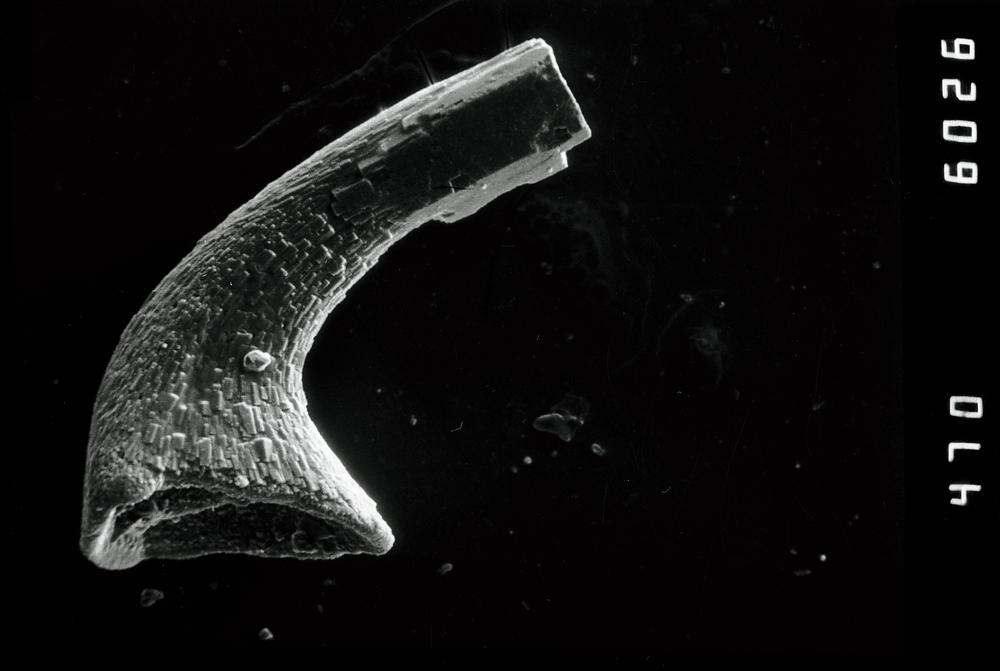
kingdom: Animalia
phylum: Chordata
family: Protopanderodontidae
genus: Variabiloconus
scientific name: Variabiloconus
